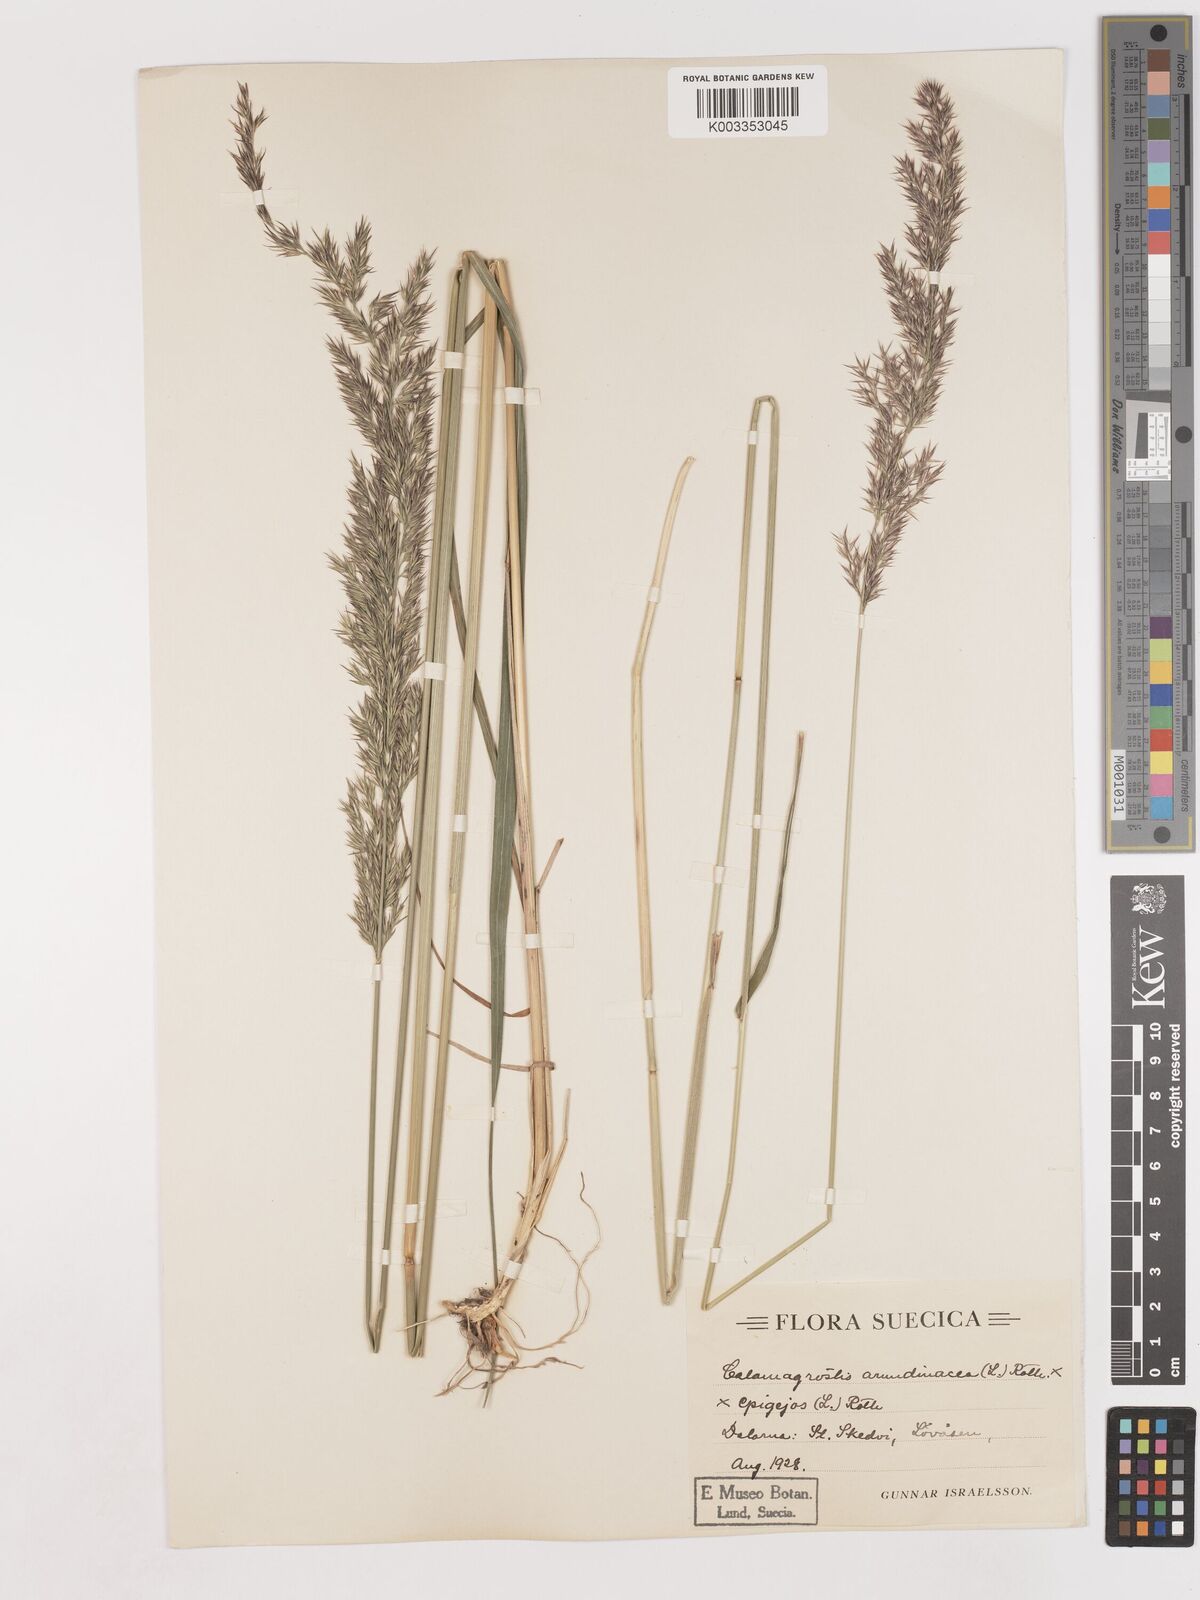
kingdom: Plantae
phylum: Tracheophyta
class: Liliopsida
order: Poales
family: Poaceae
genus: Calamagrostis
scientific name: Calamagrostis epigejos
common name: Wood small-reed
